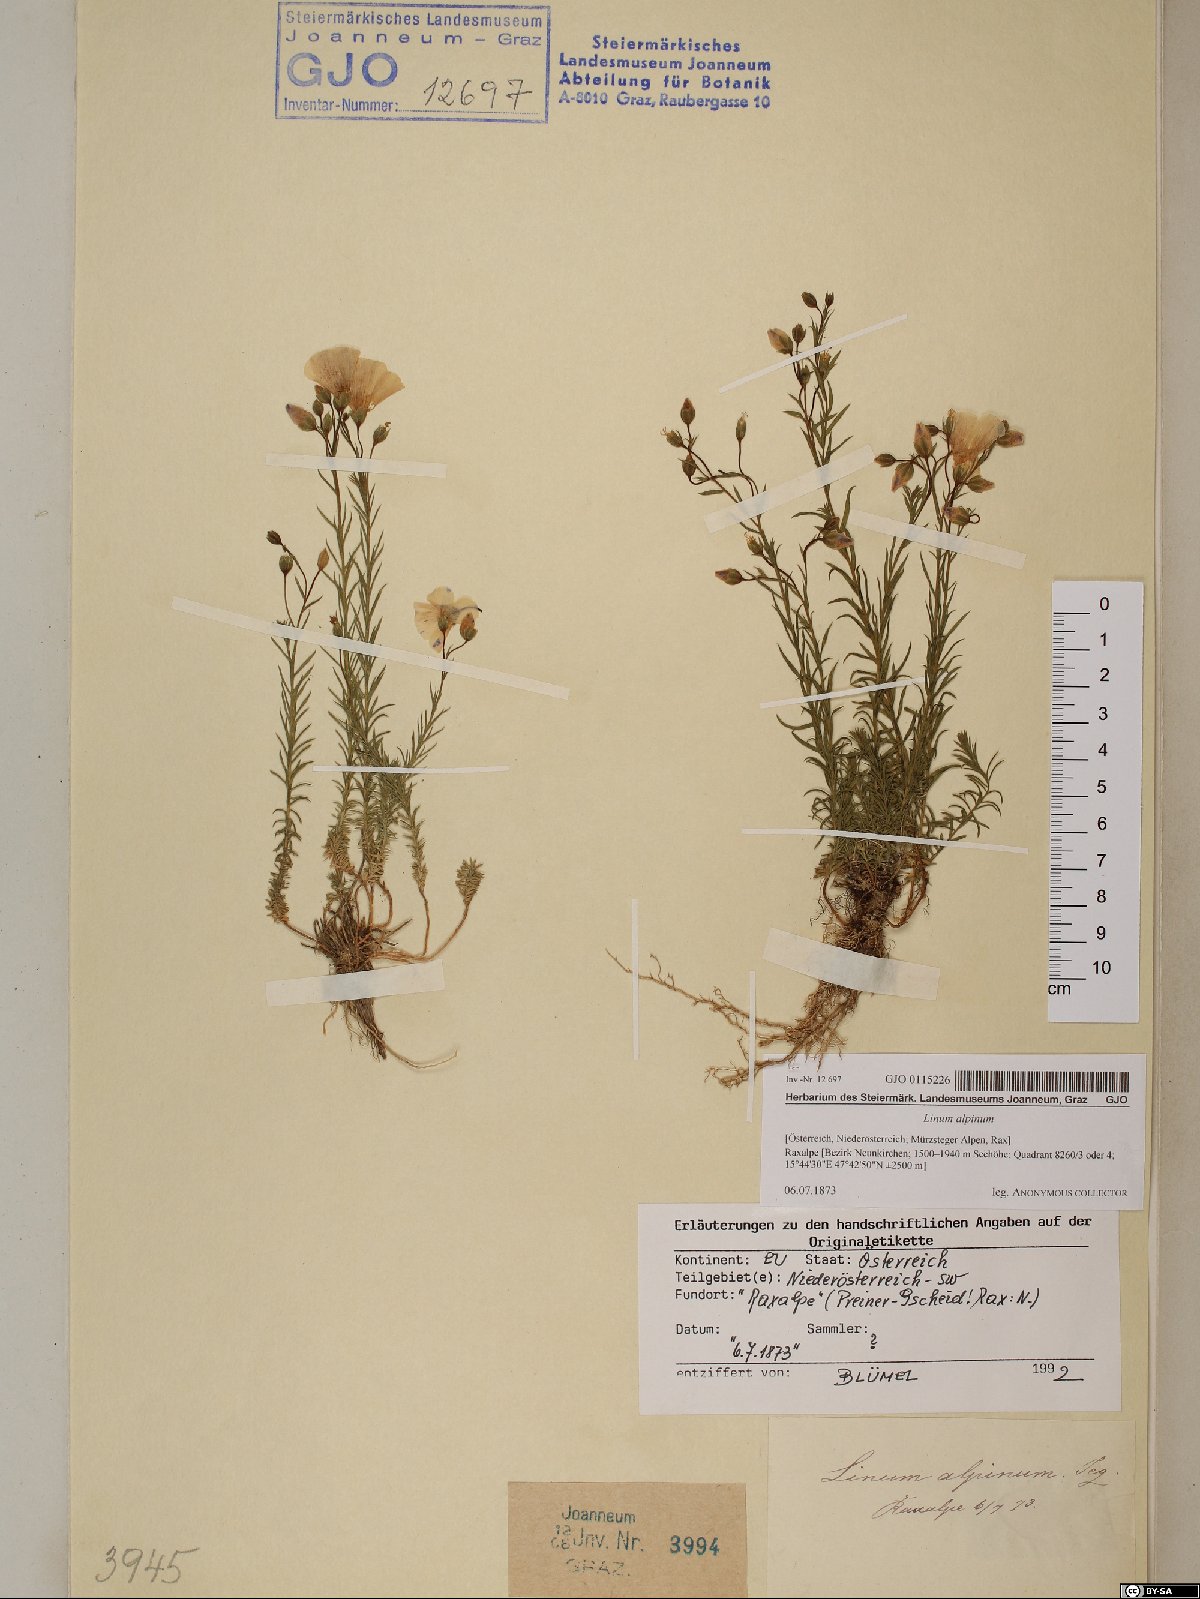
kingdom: Plantae
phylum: Tracheophyta
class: Magnoliopsida
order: Malpighiales
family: Linaceae
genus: Linum
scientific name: Linum alpinum
